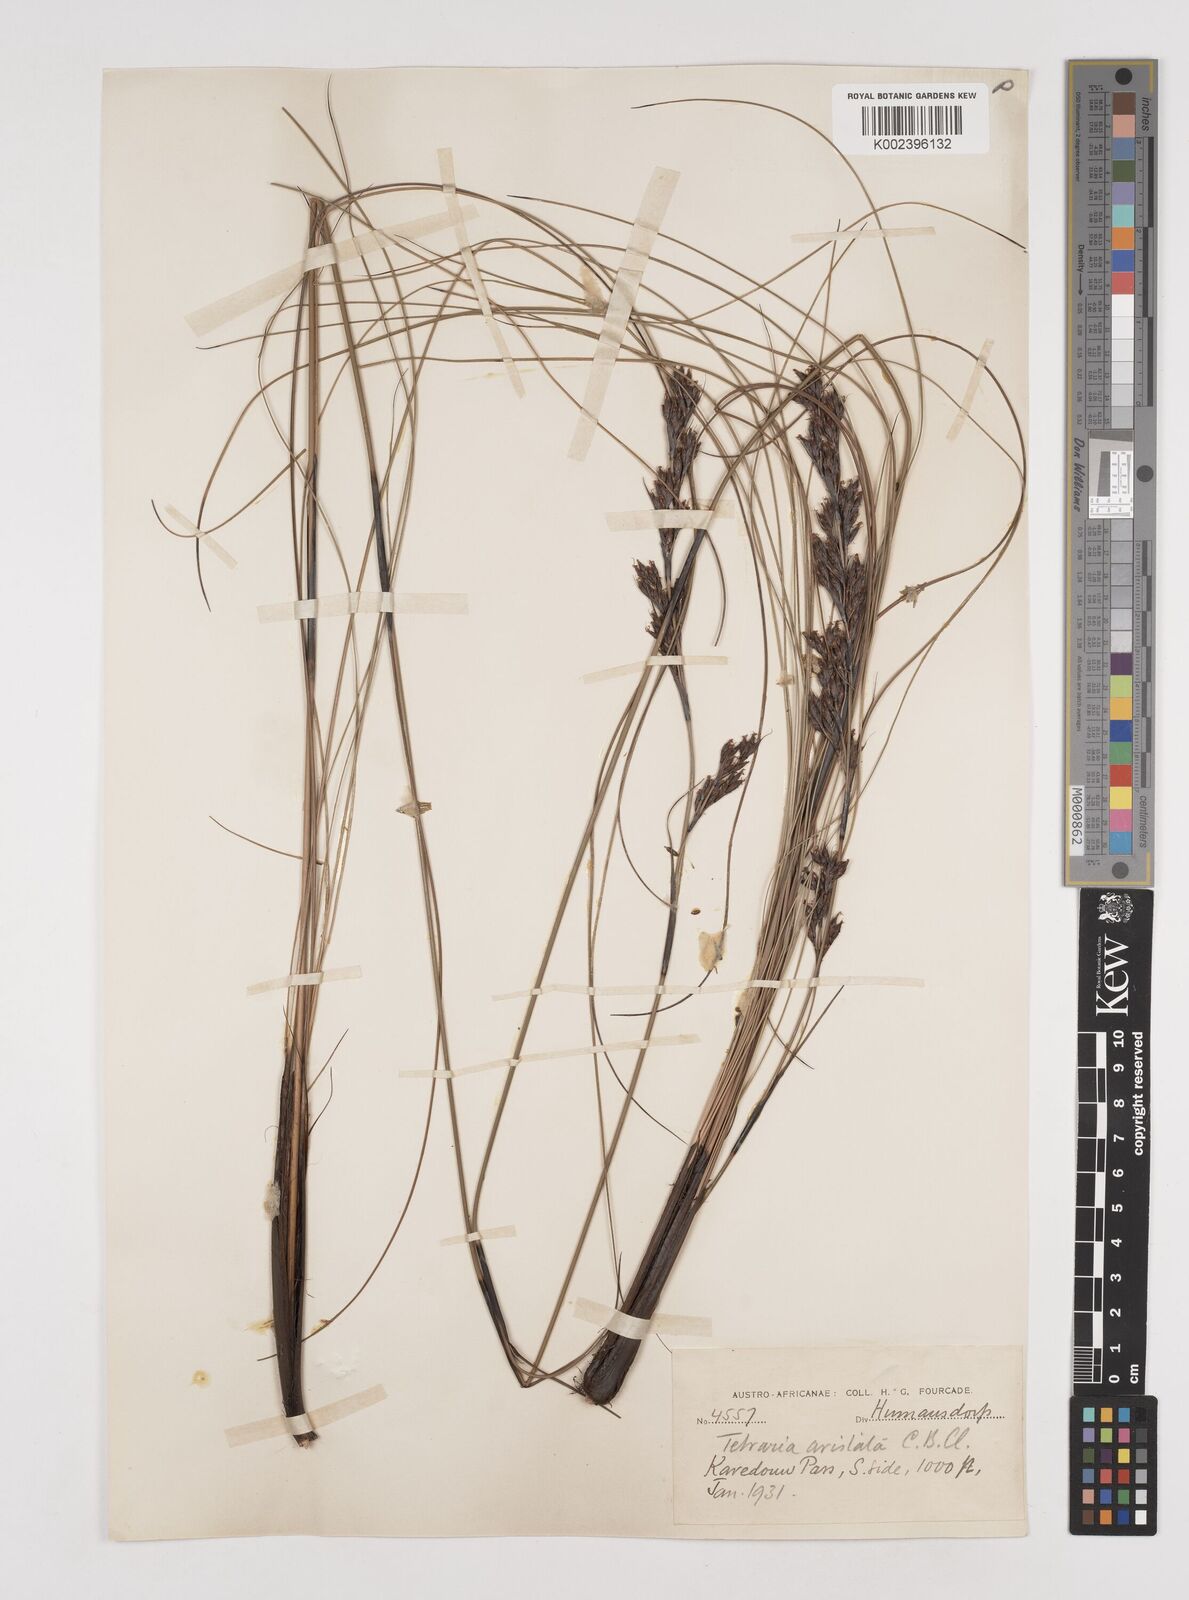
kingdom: Plantae
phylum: Tracheophyta
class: Liliopsida
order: Poales
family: Cyperaceae
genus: Tetraria
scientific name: Tetraria flexuosa
